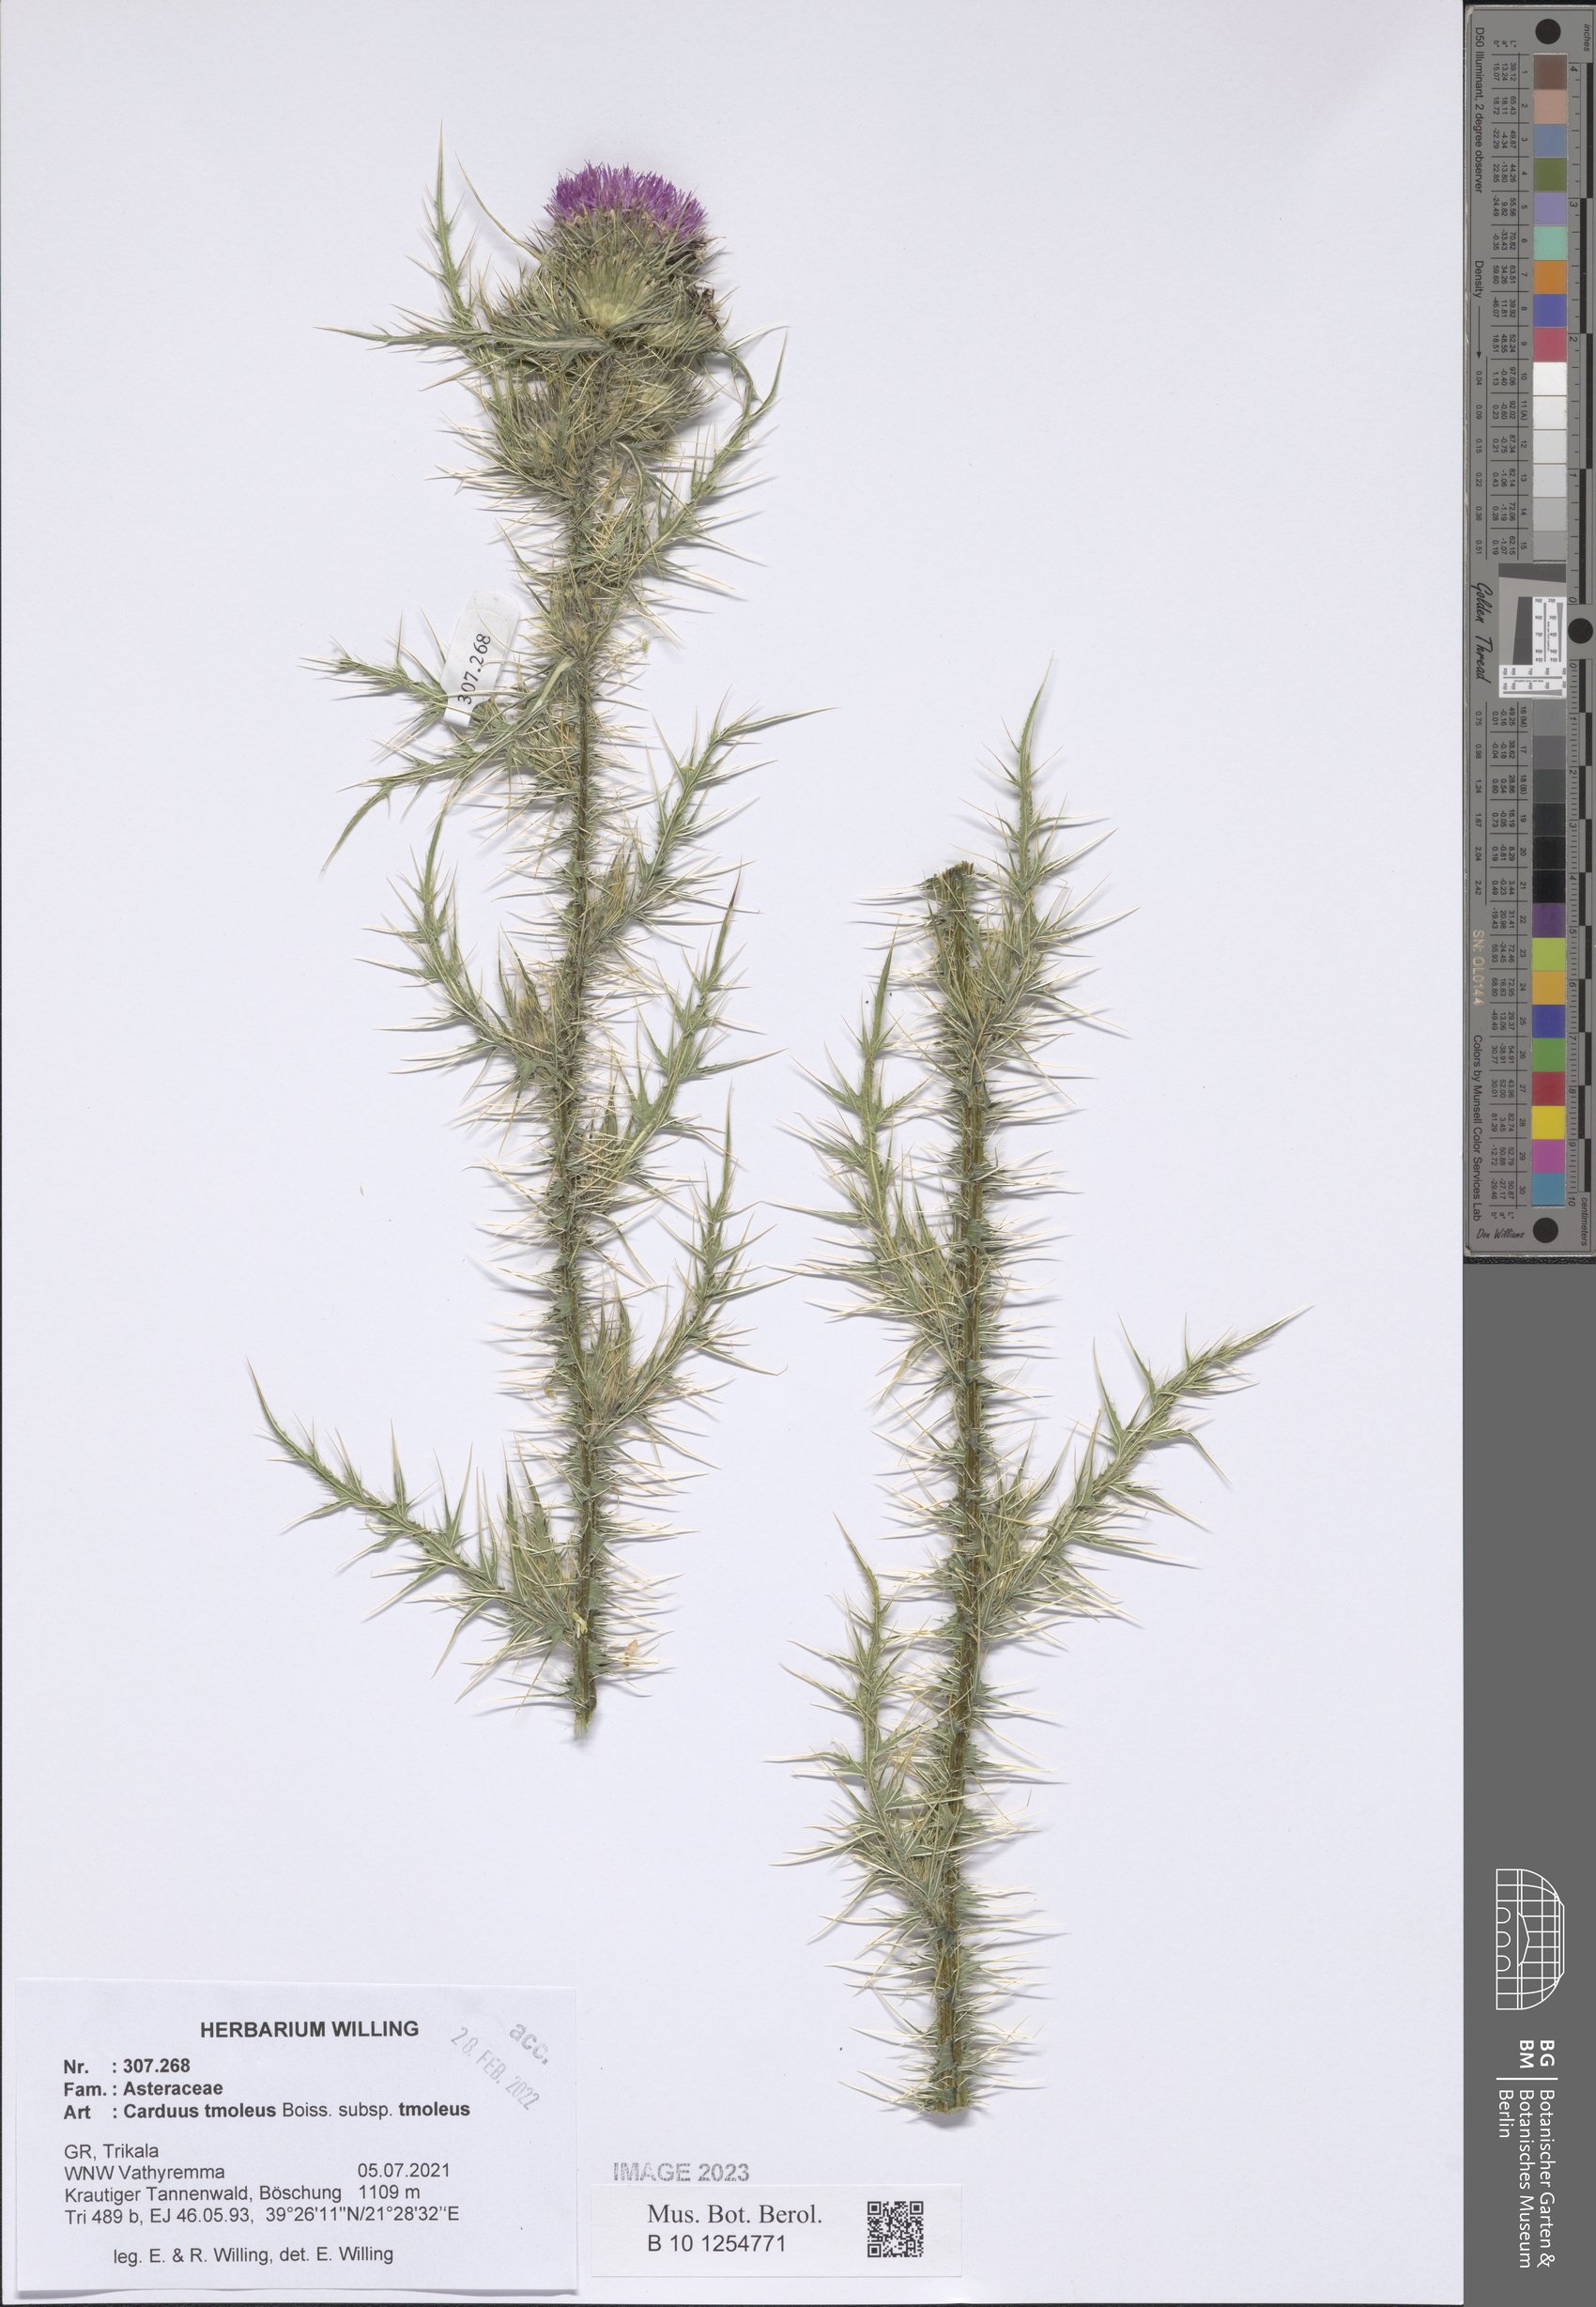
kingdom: Plantae
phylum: Tracheophyta
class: Magnoliopsida
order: Asterales
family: Asteraceae
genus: Carduus
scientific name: Carduus tmoleus
